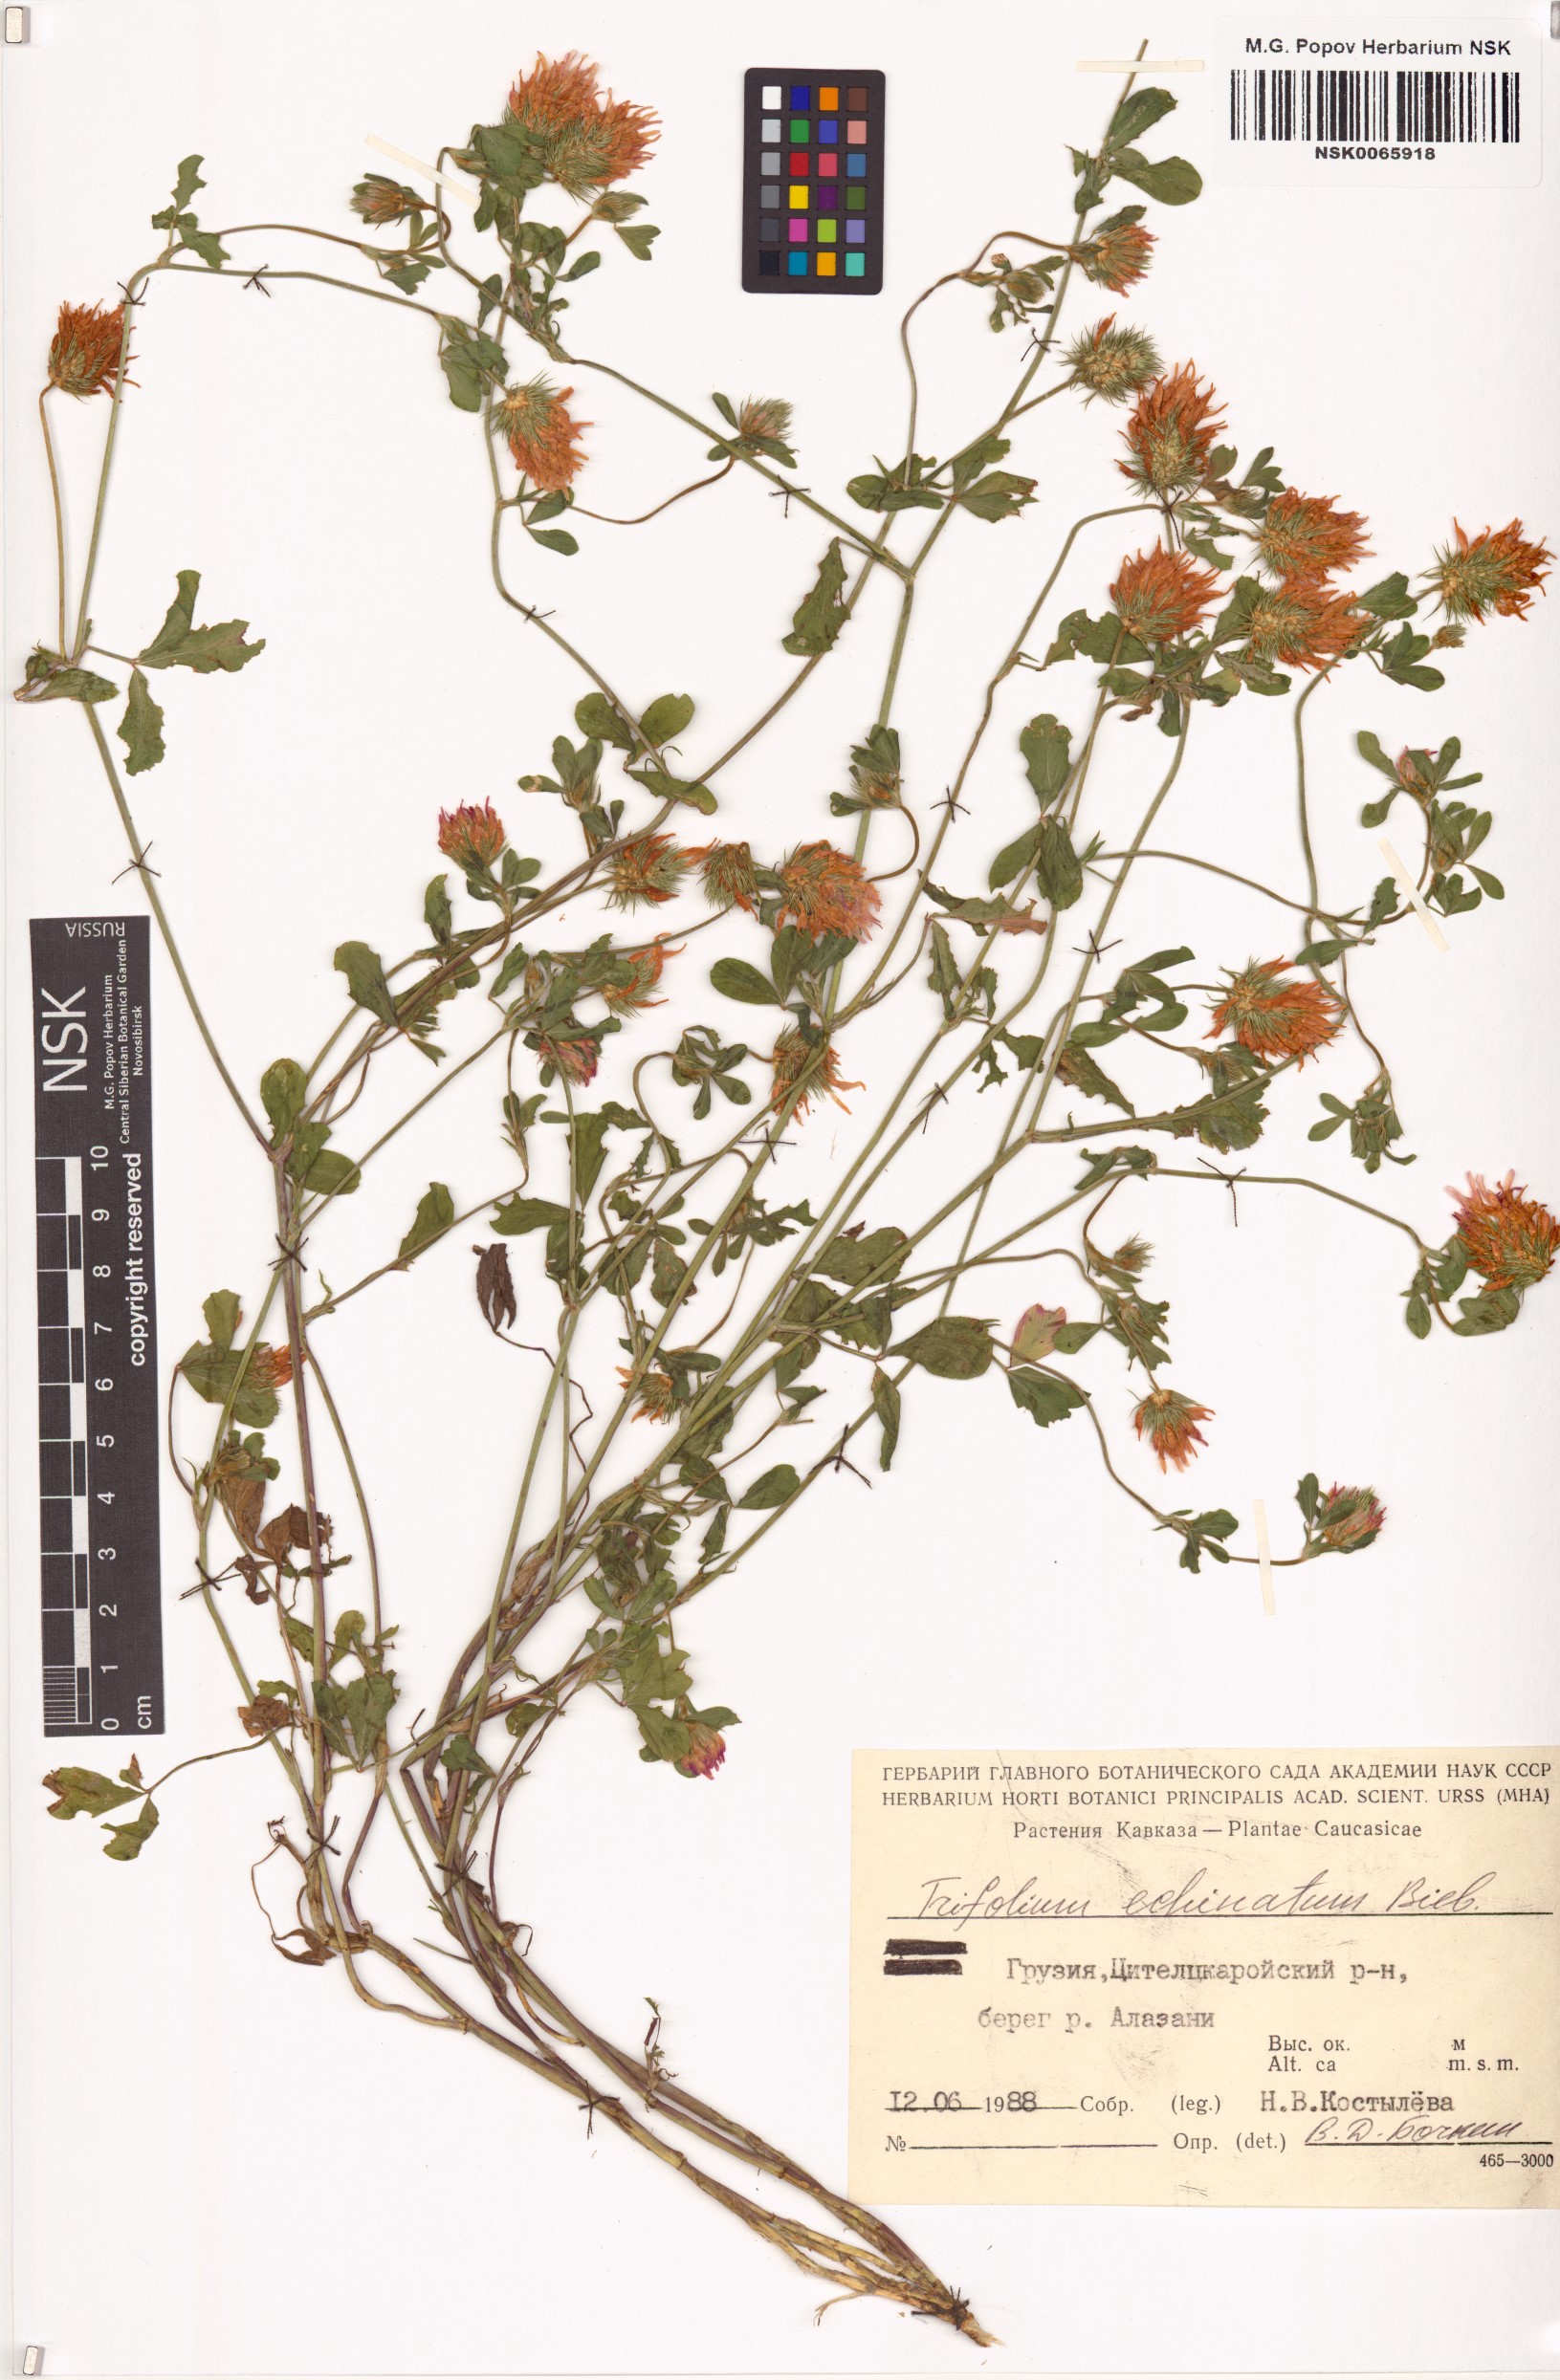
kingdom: Plantae
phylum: Tracheophyta
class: Magnoliopsida
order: Fabales
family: Fabaceae
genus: Trifolium
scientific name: Trifolium echinatum
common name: Hedgehog clover
